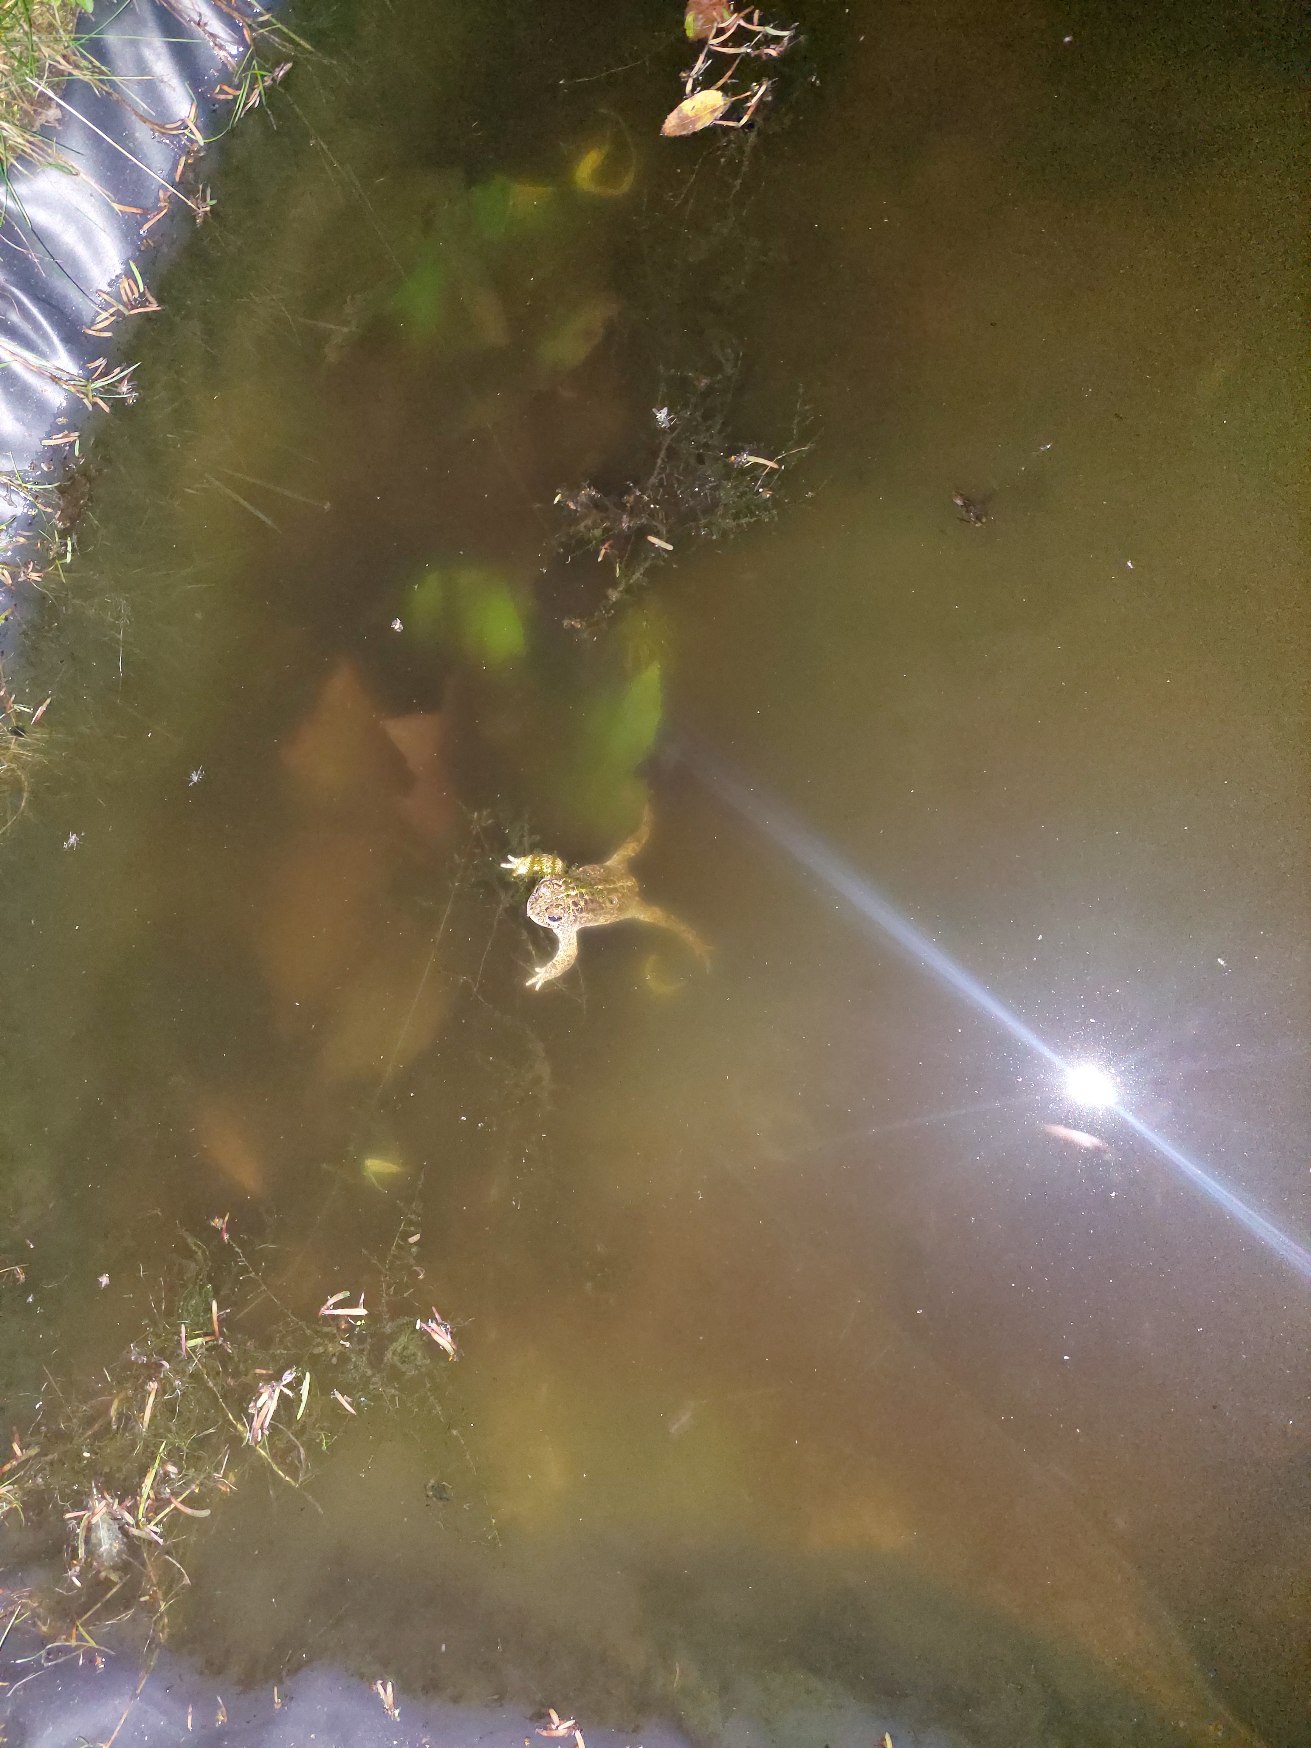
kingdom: Animalia
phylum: Chordata
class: Amphibia
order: Anura
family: Bufonidae
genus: Epidalea
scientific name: Epidalea calamita
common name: Strandtudse
